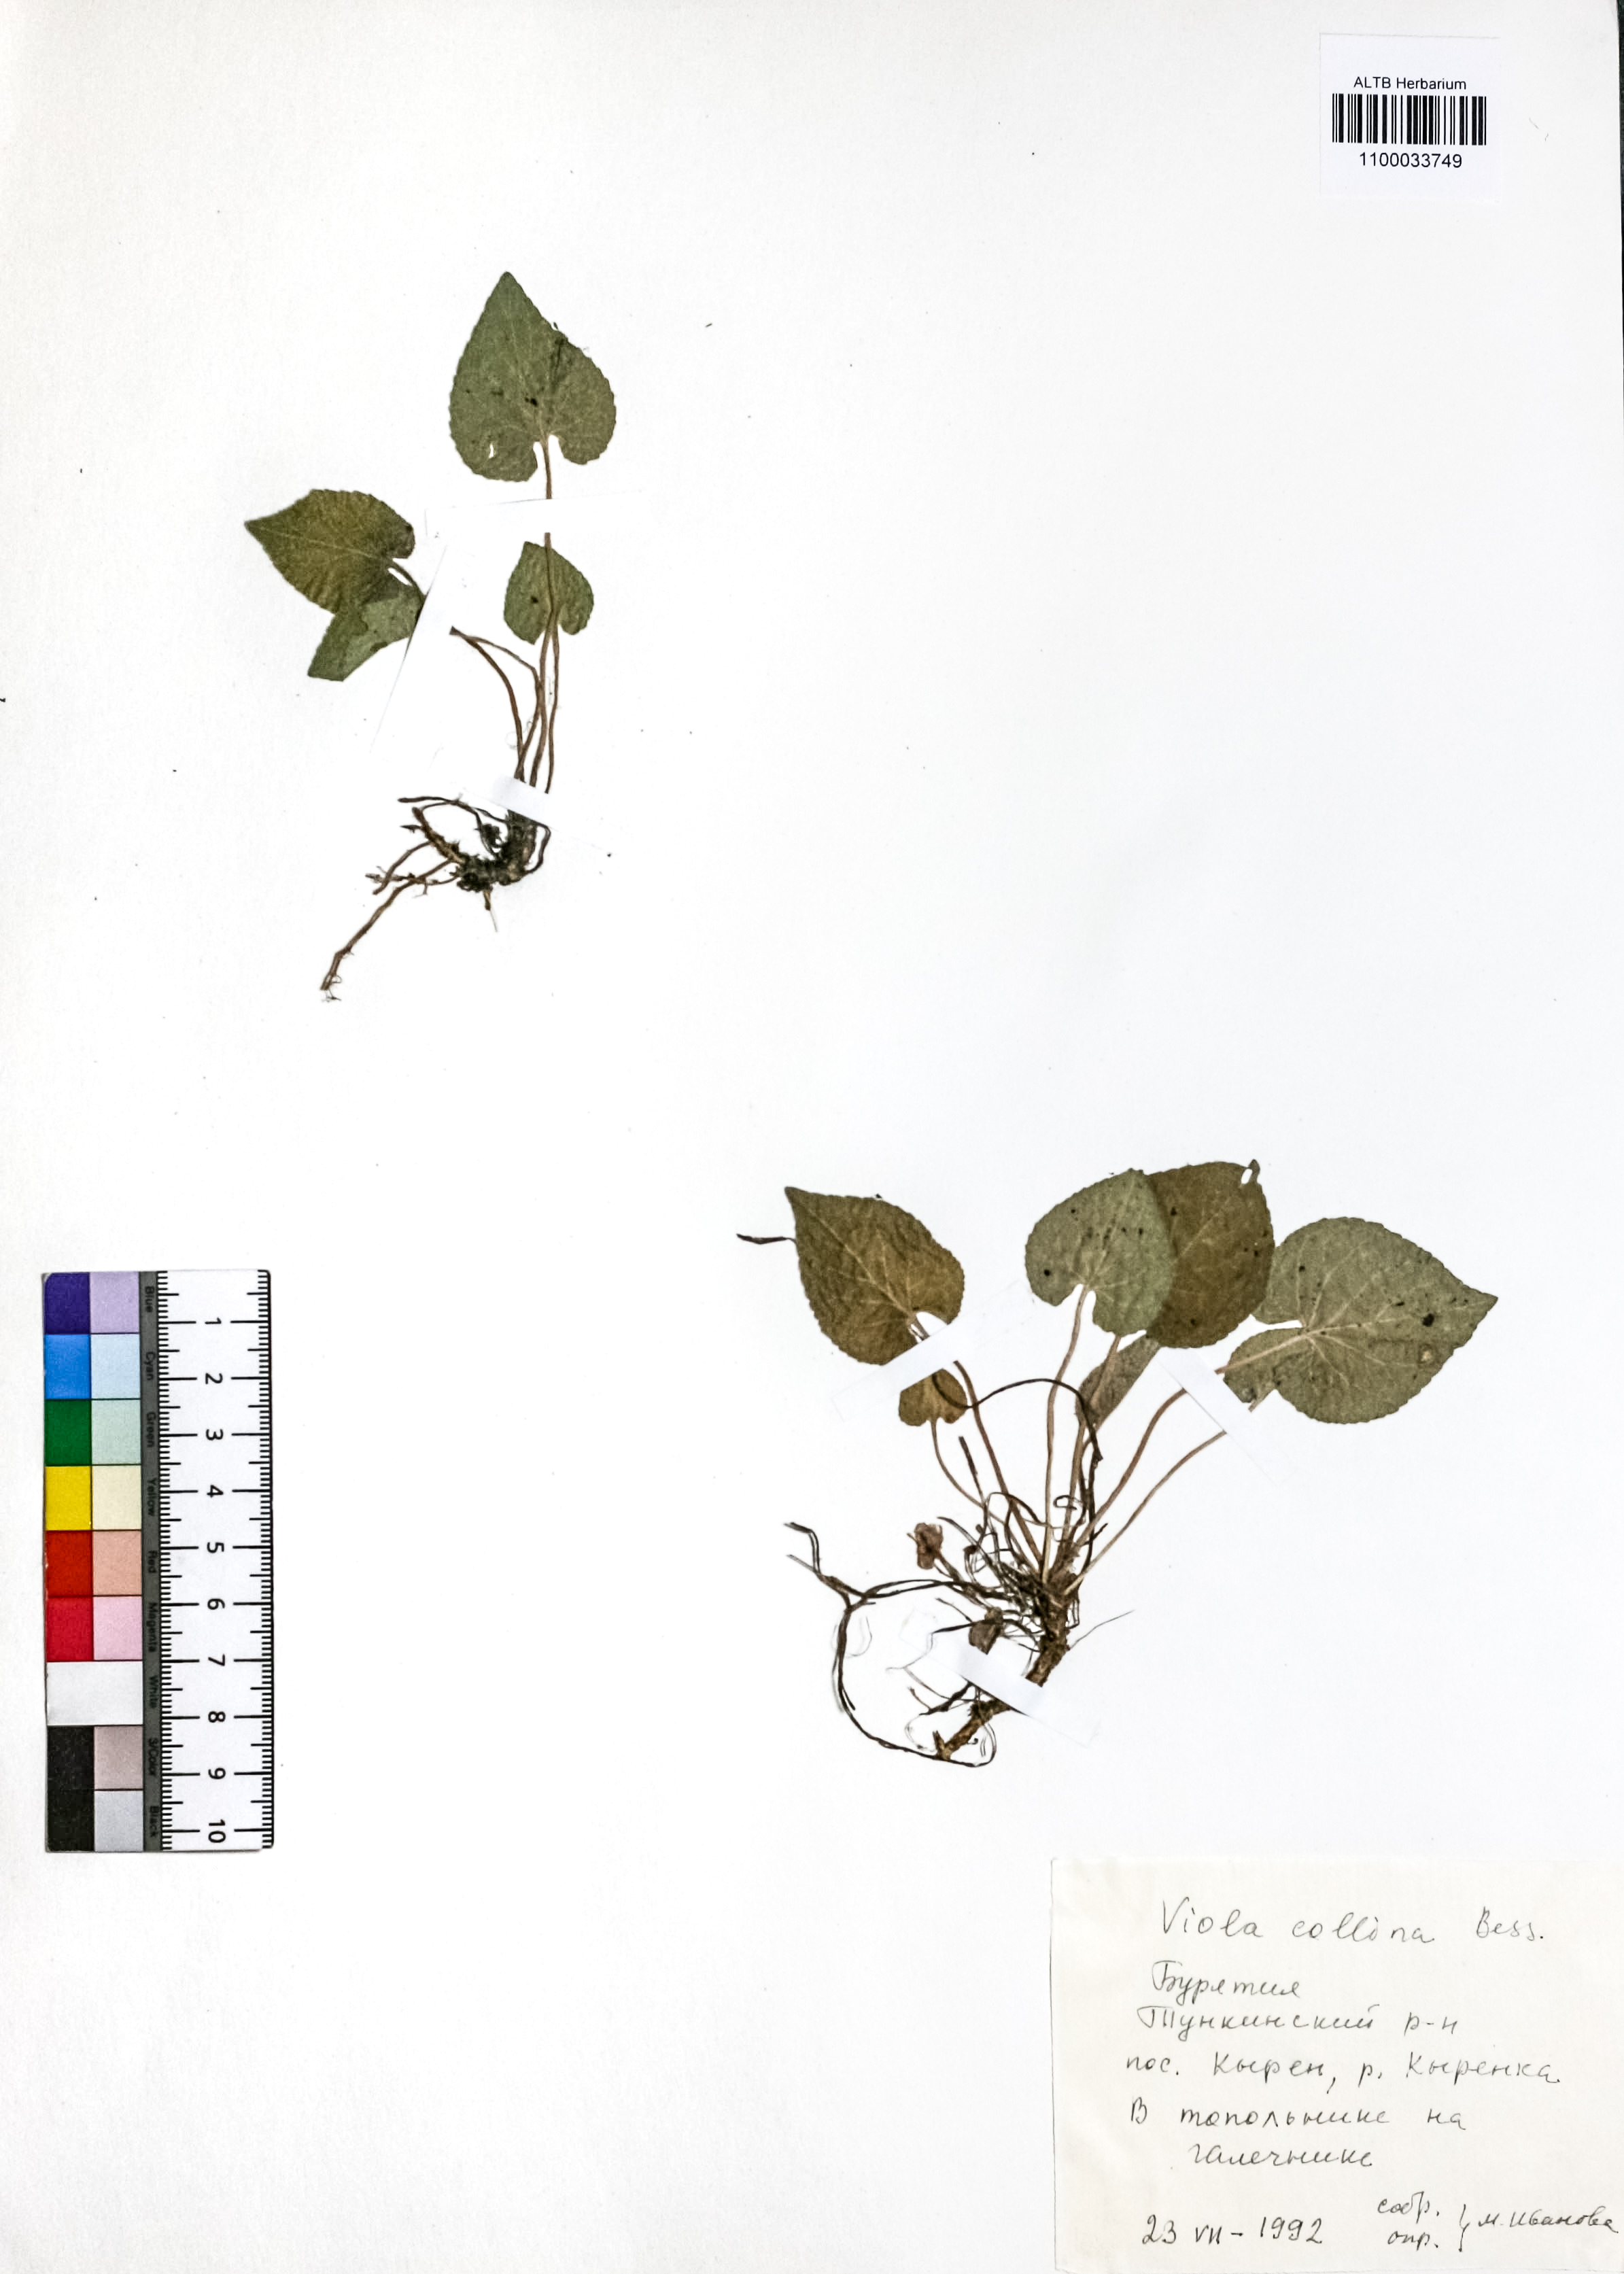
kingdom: Plantae
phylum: Tracheophyta
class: Magnoliopsida
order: Malpighiales
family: Violaceae
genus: Viola
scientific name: Viola collina
